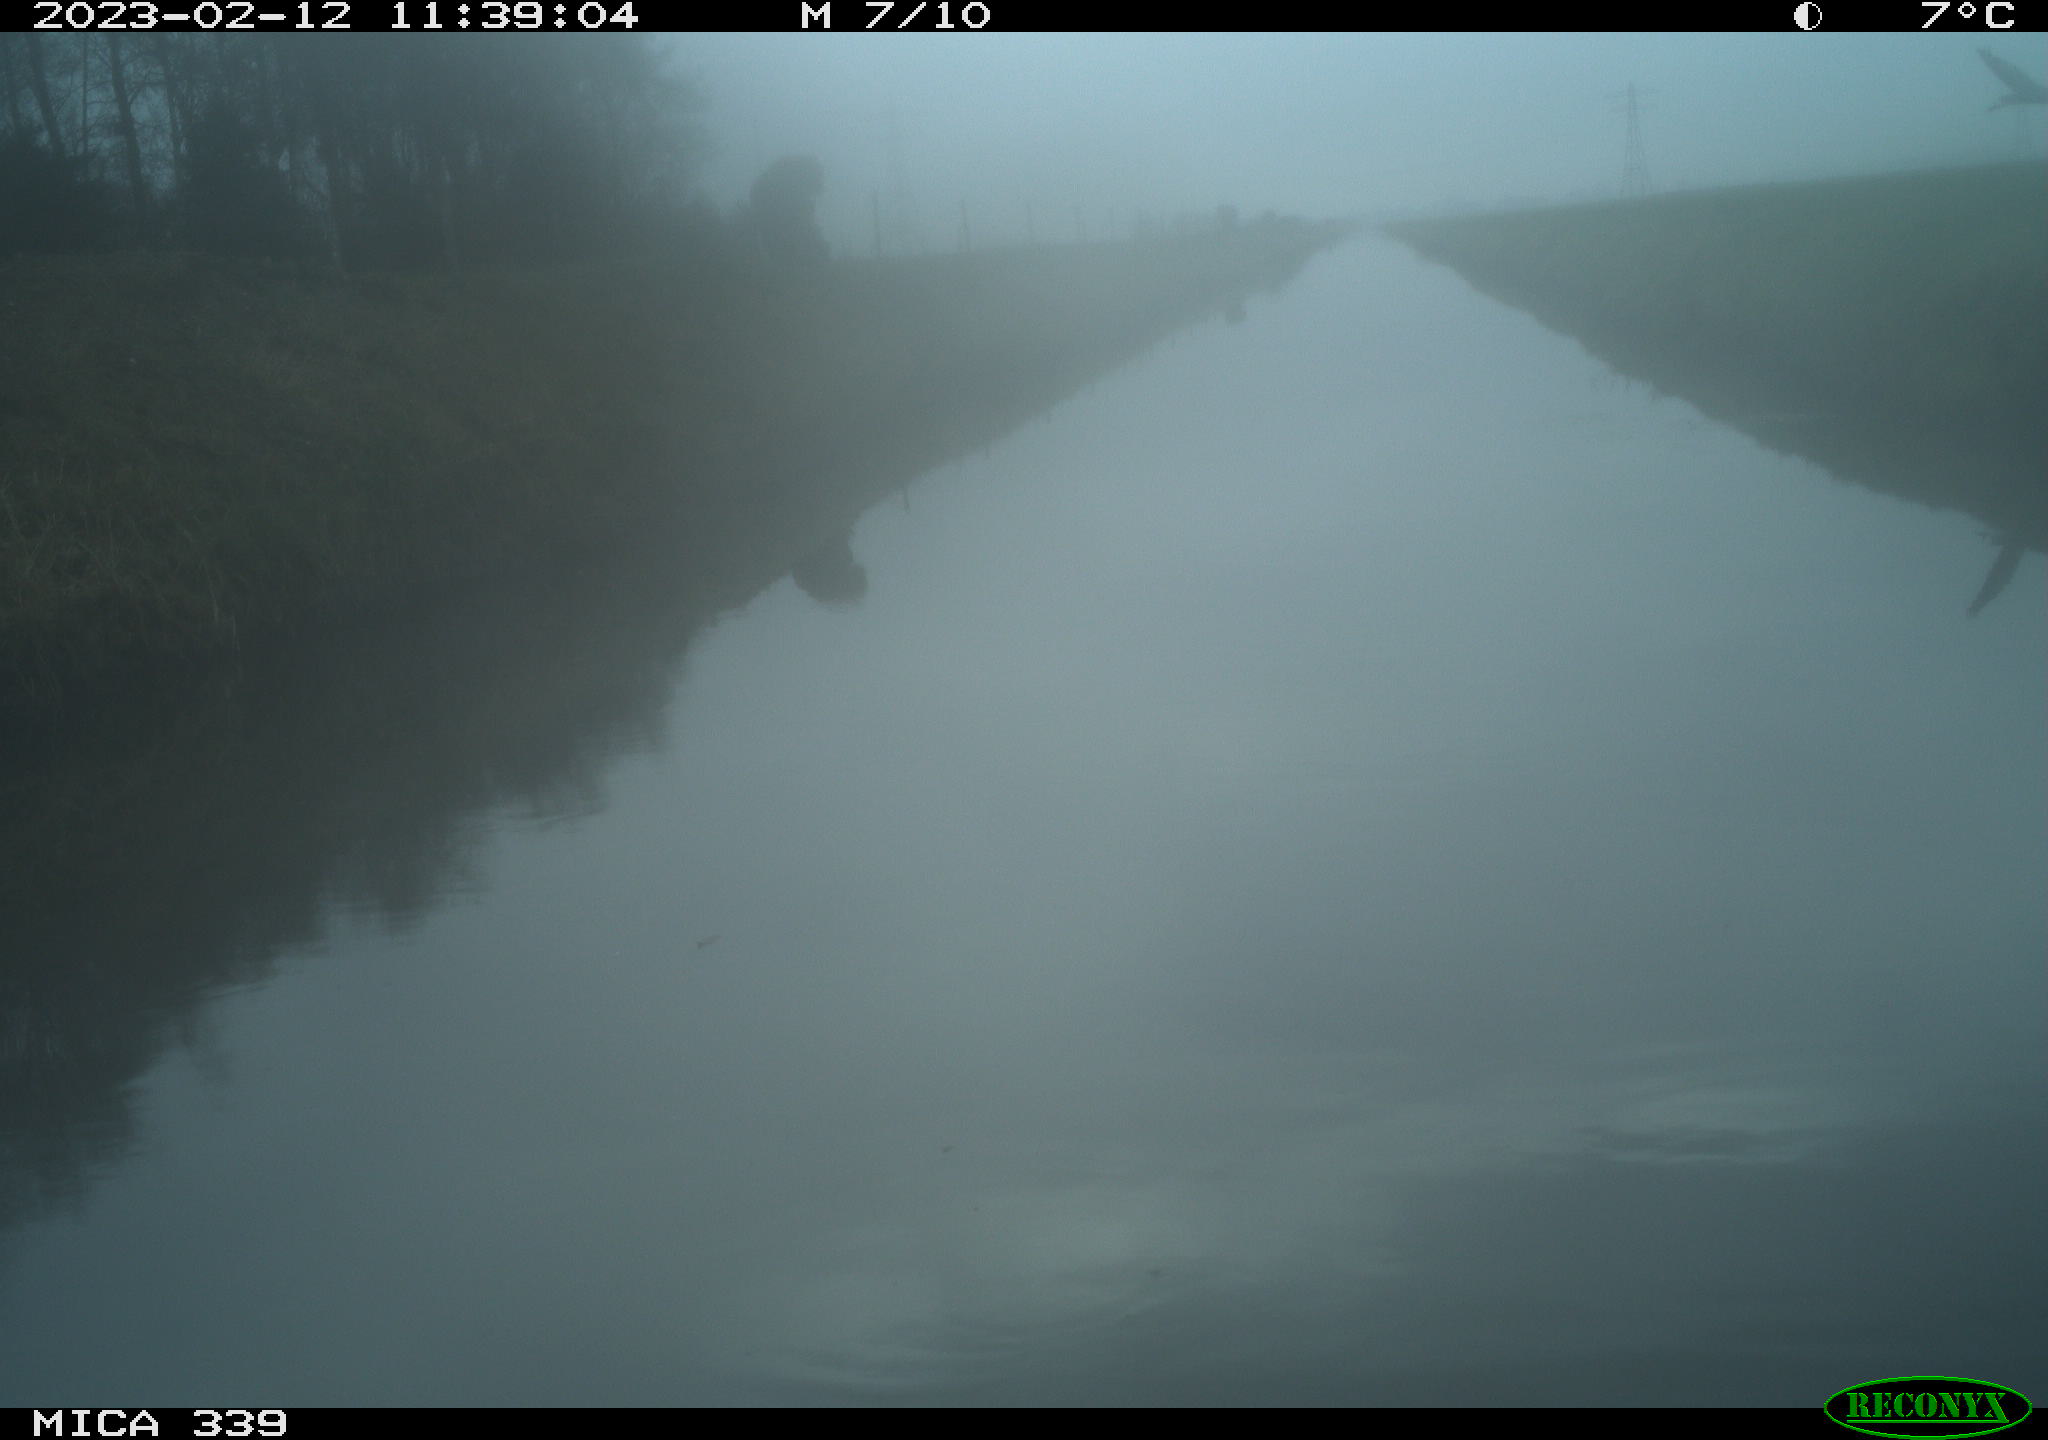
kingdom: Animalia
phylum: Chordata
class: Aves
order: Pelecaniformes
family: Ardeidae
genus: Ardea
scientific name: Ardea cinerea
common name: Grey heron
